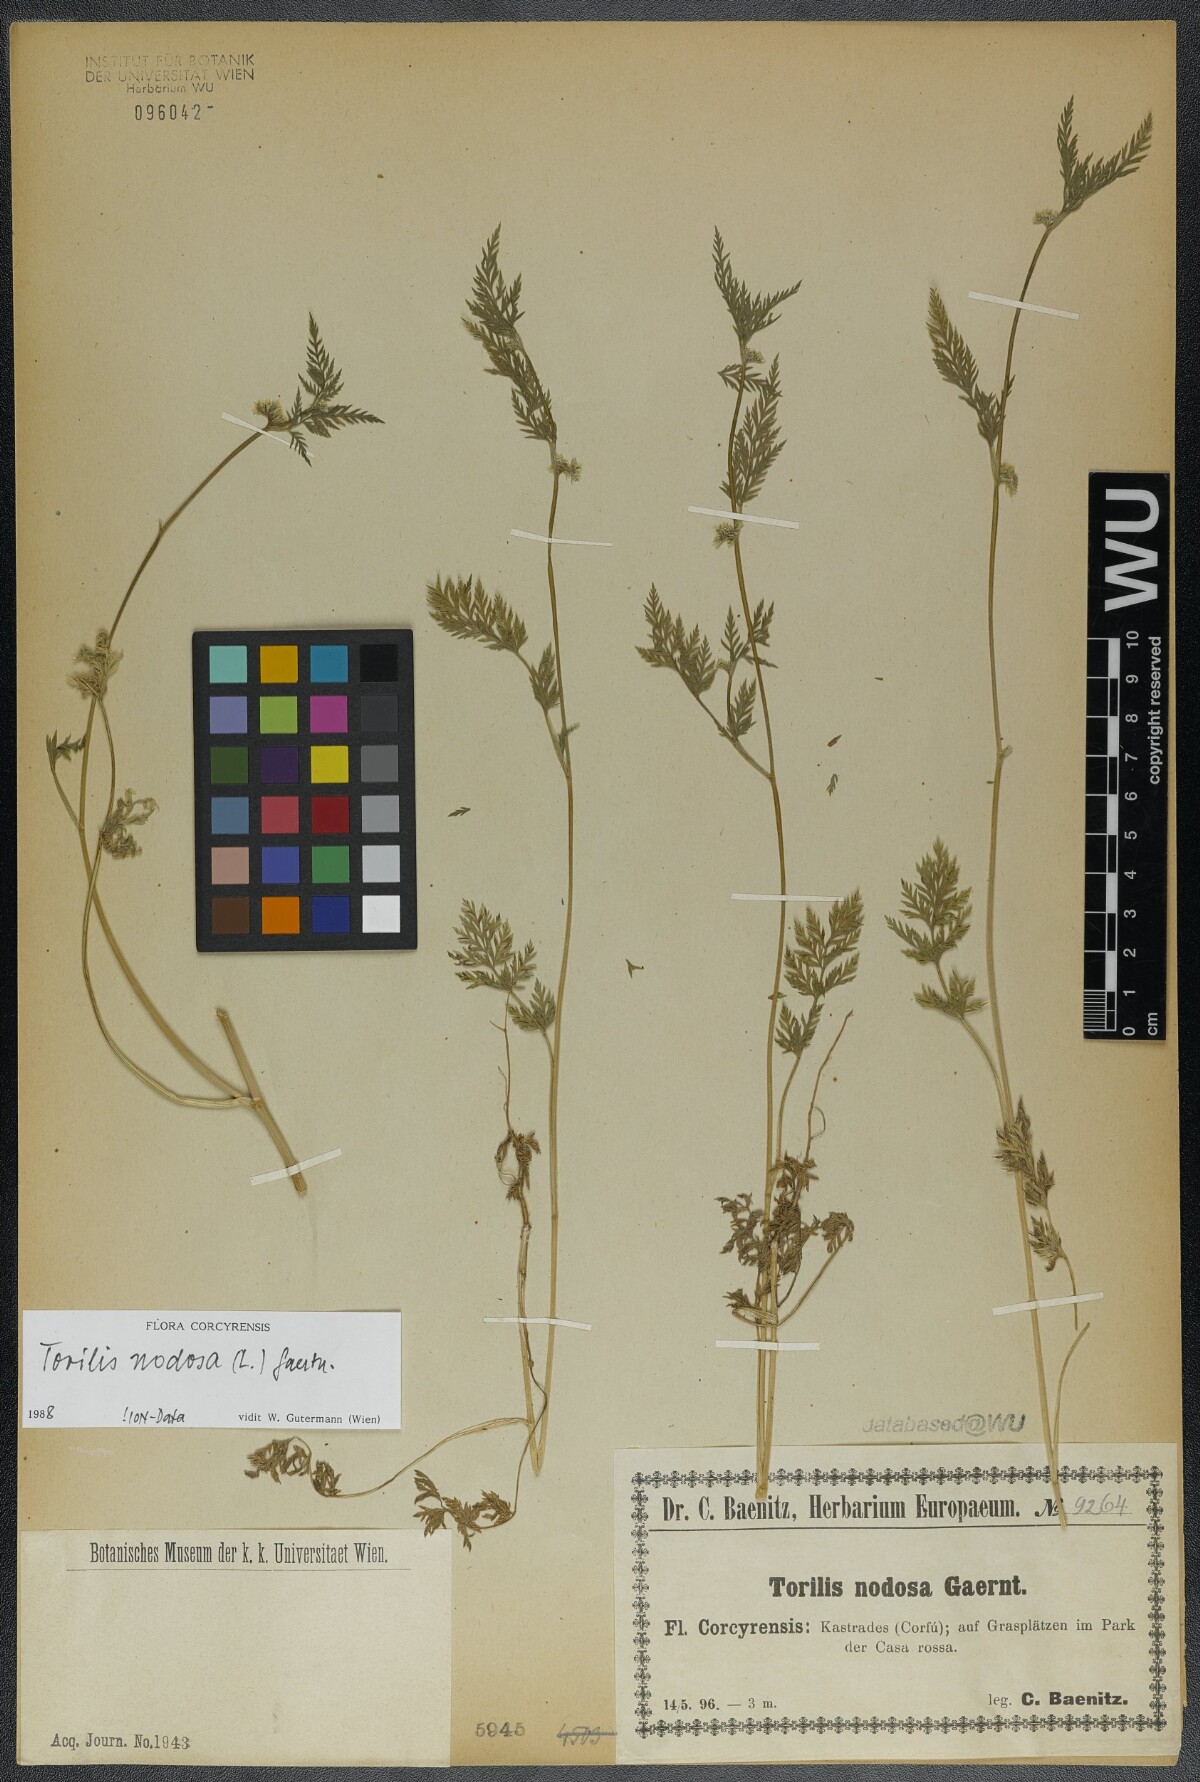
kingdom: Plantae
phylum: Tracheophyta
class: Magnoliopsida
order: Apiales
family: Apiaceae
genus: Torilis
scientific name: Torilis nodosa
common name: Knotted hedge-parsley
